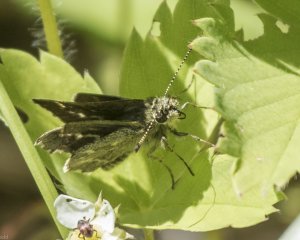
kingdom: Animalia
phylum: Arthropoda
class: Insecta
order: Lepidoptera
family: Hesperiidae
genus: Mastor
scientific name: Mastor hegon
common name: Pepper and Salt Skipper
